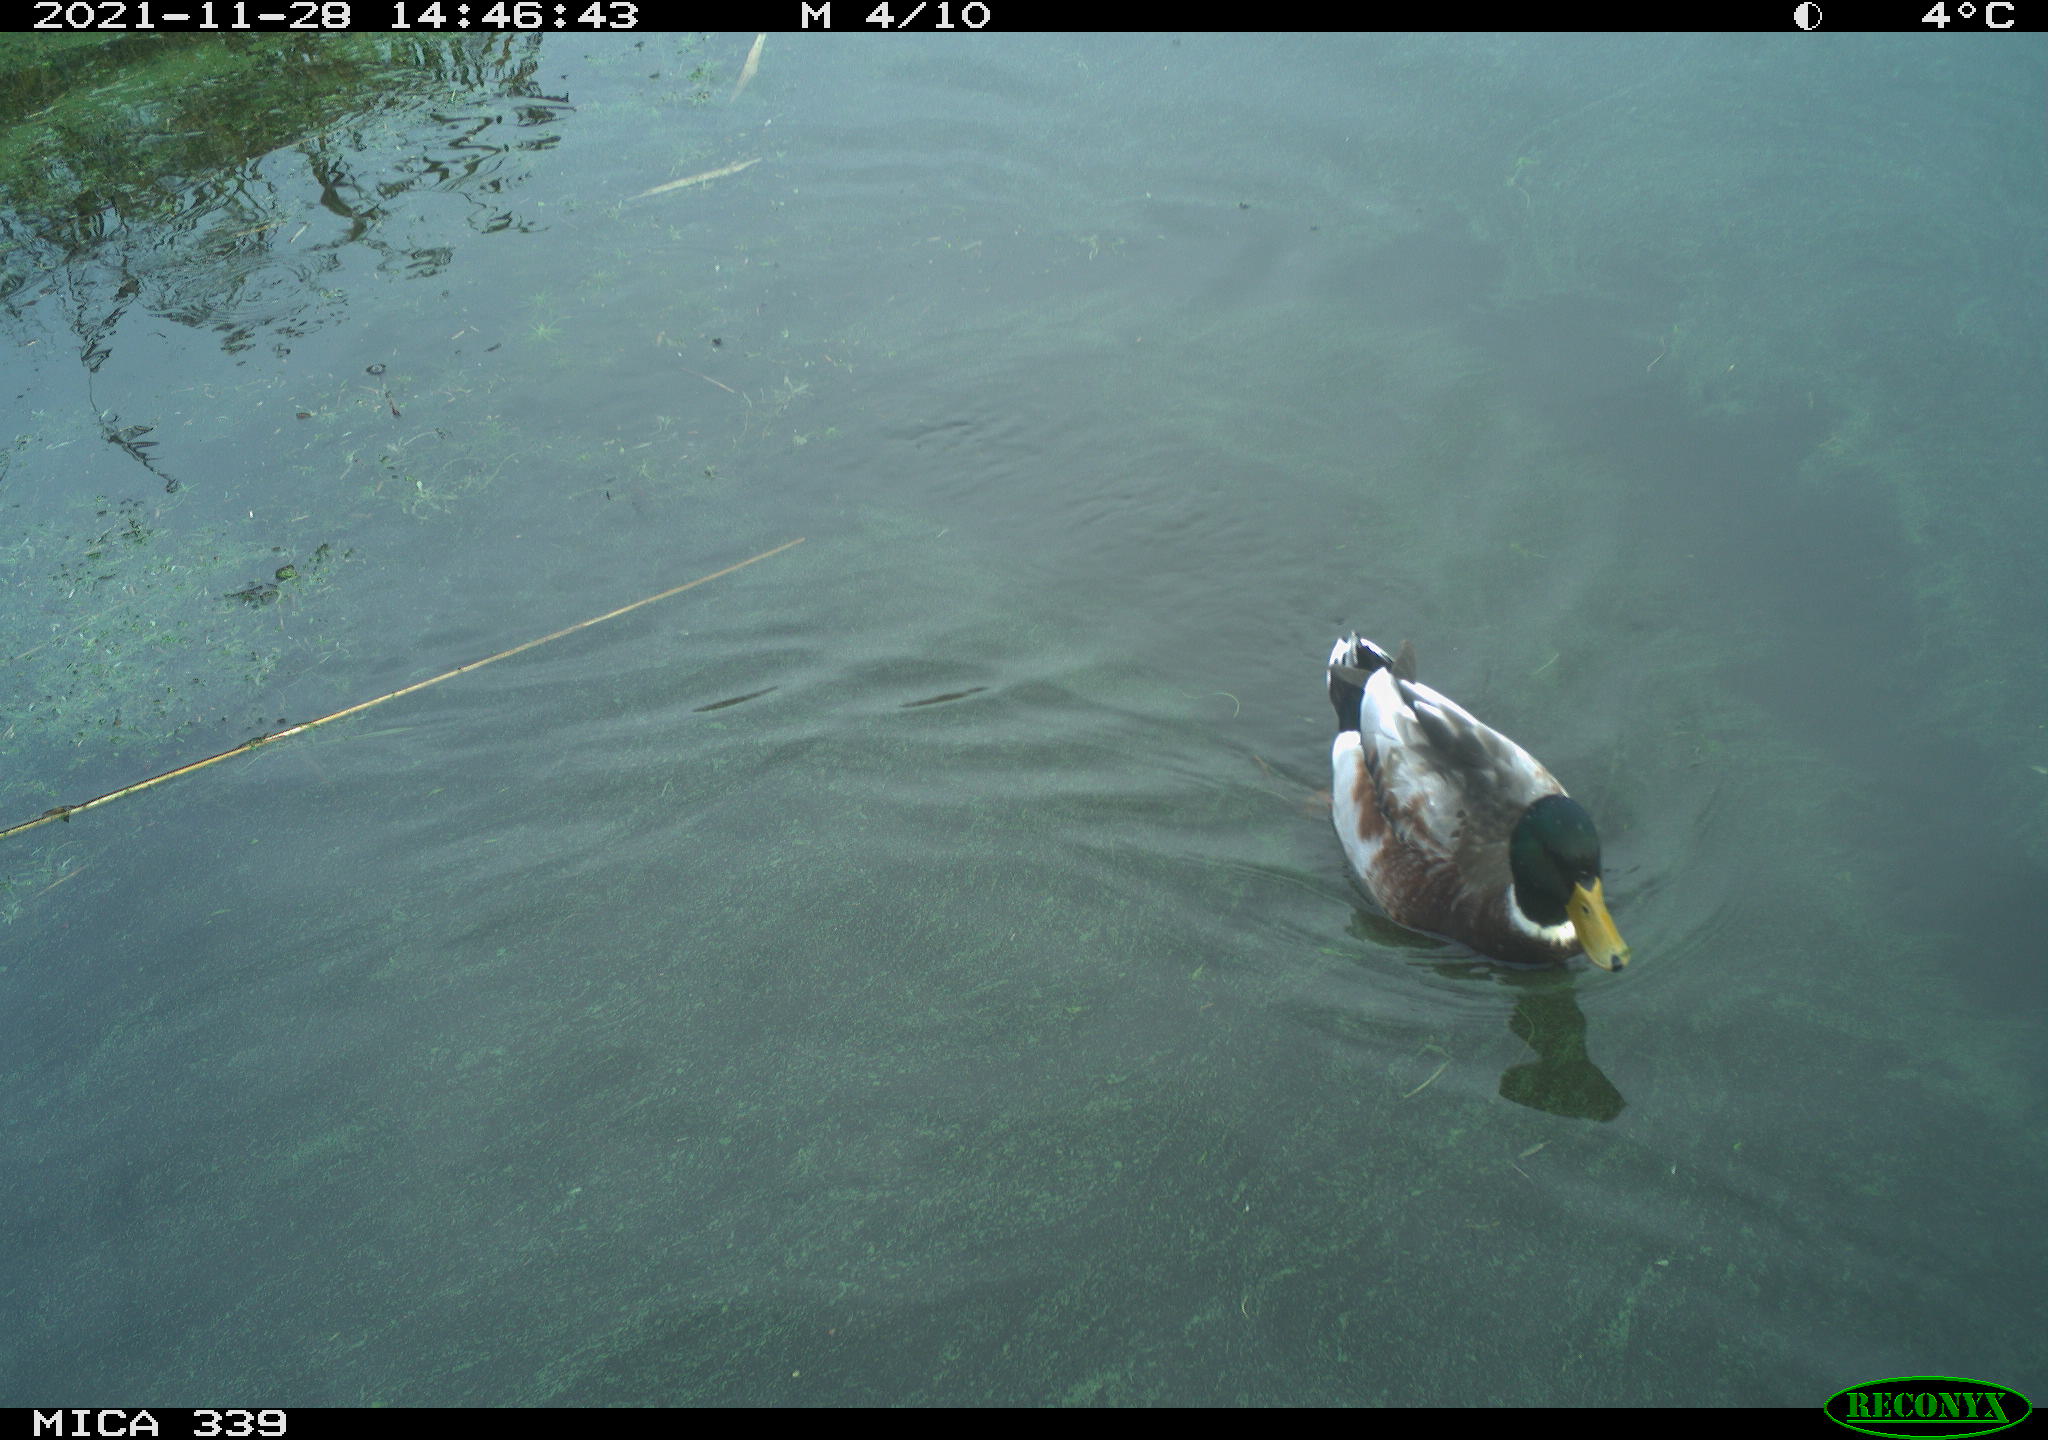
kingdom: Animalia
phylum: Chordata
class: Aves
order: Anseriformes
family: Anatidae
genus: Anas
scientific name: Anas platyrhynchos
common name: Mallard
